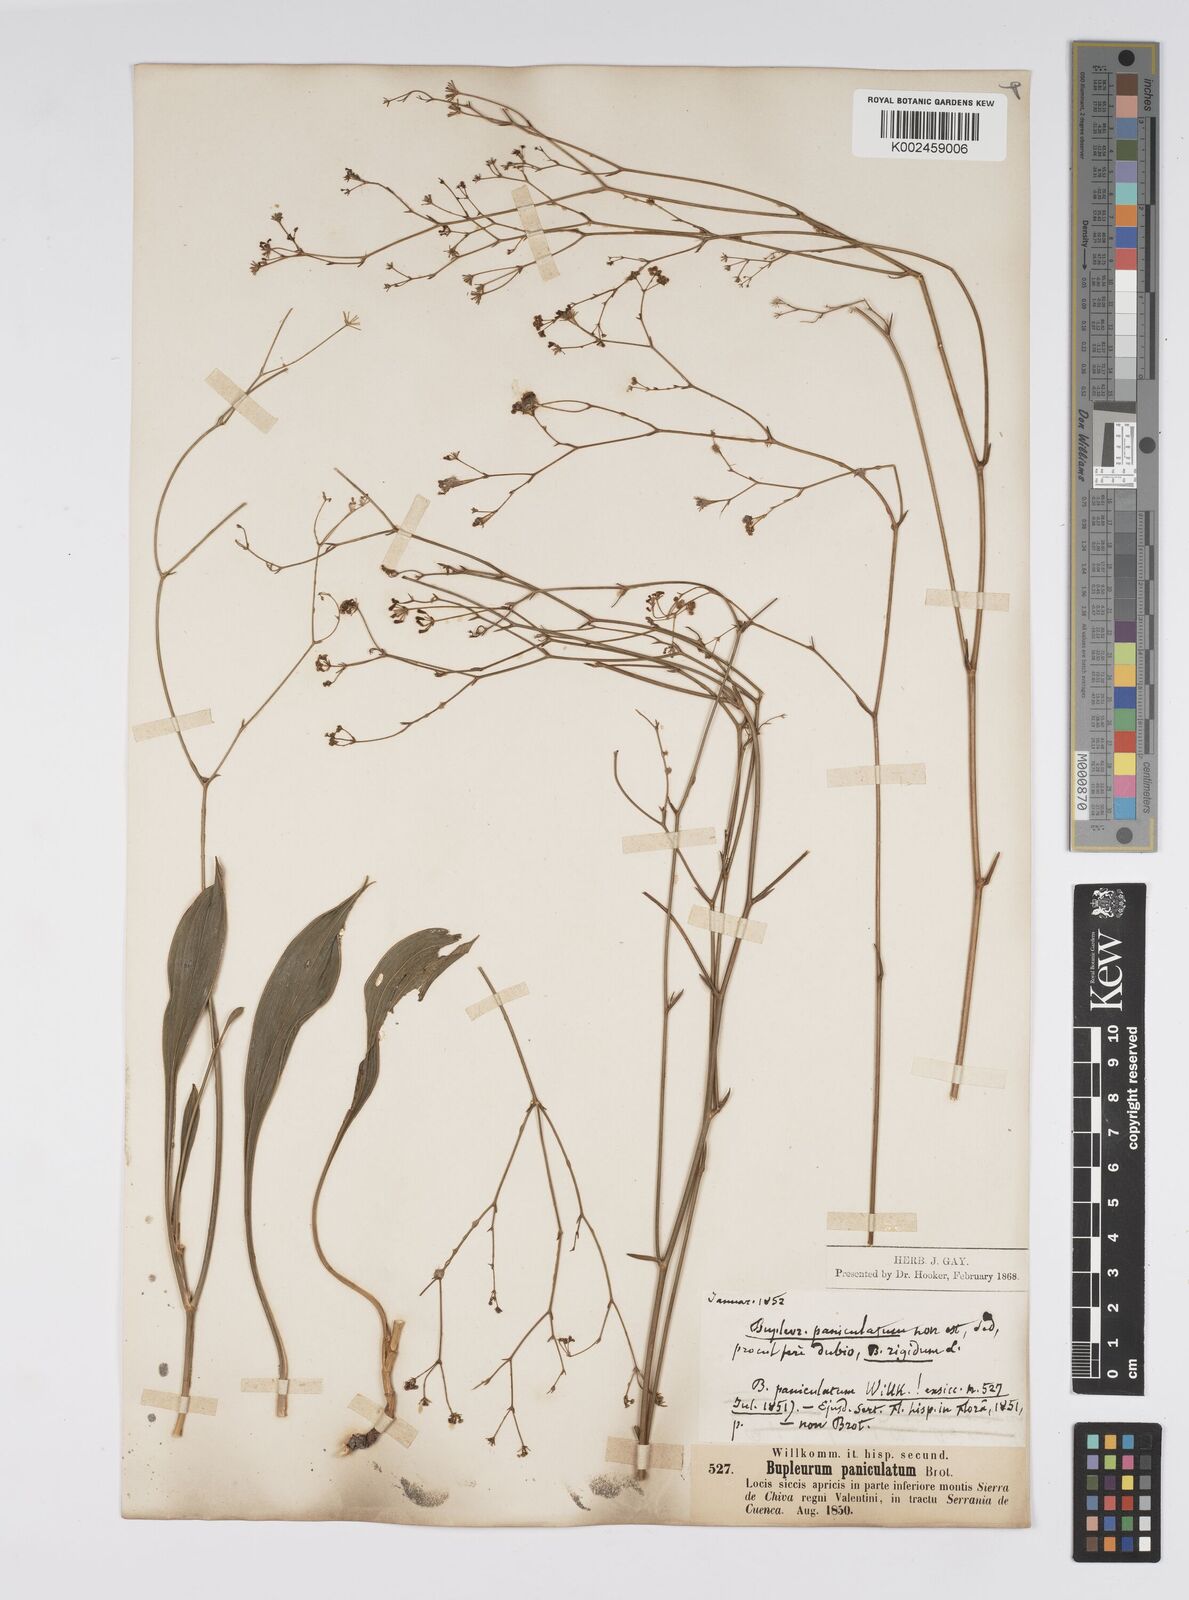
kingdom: Plantae
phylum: Tracheophyta
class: Magnoliopsida
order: Apiales
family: Apiaceae
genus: Bupleurum
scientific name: Bupleurum rigidum
